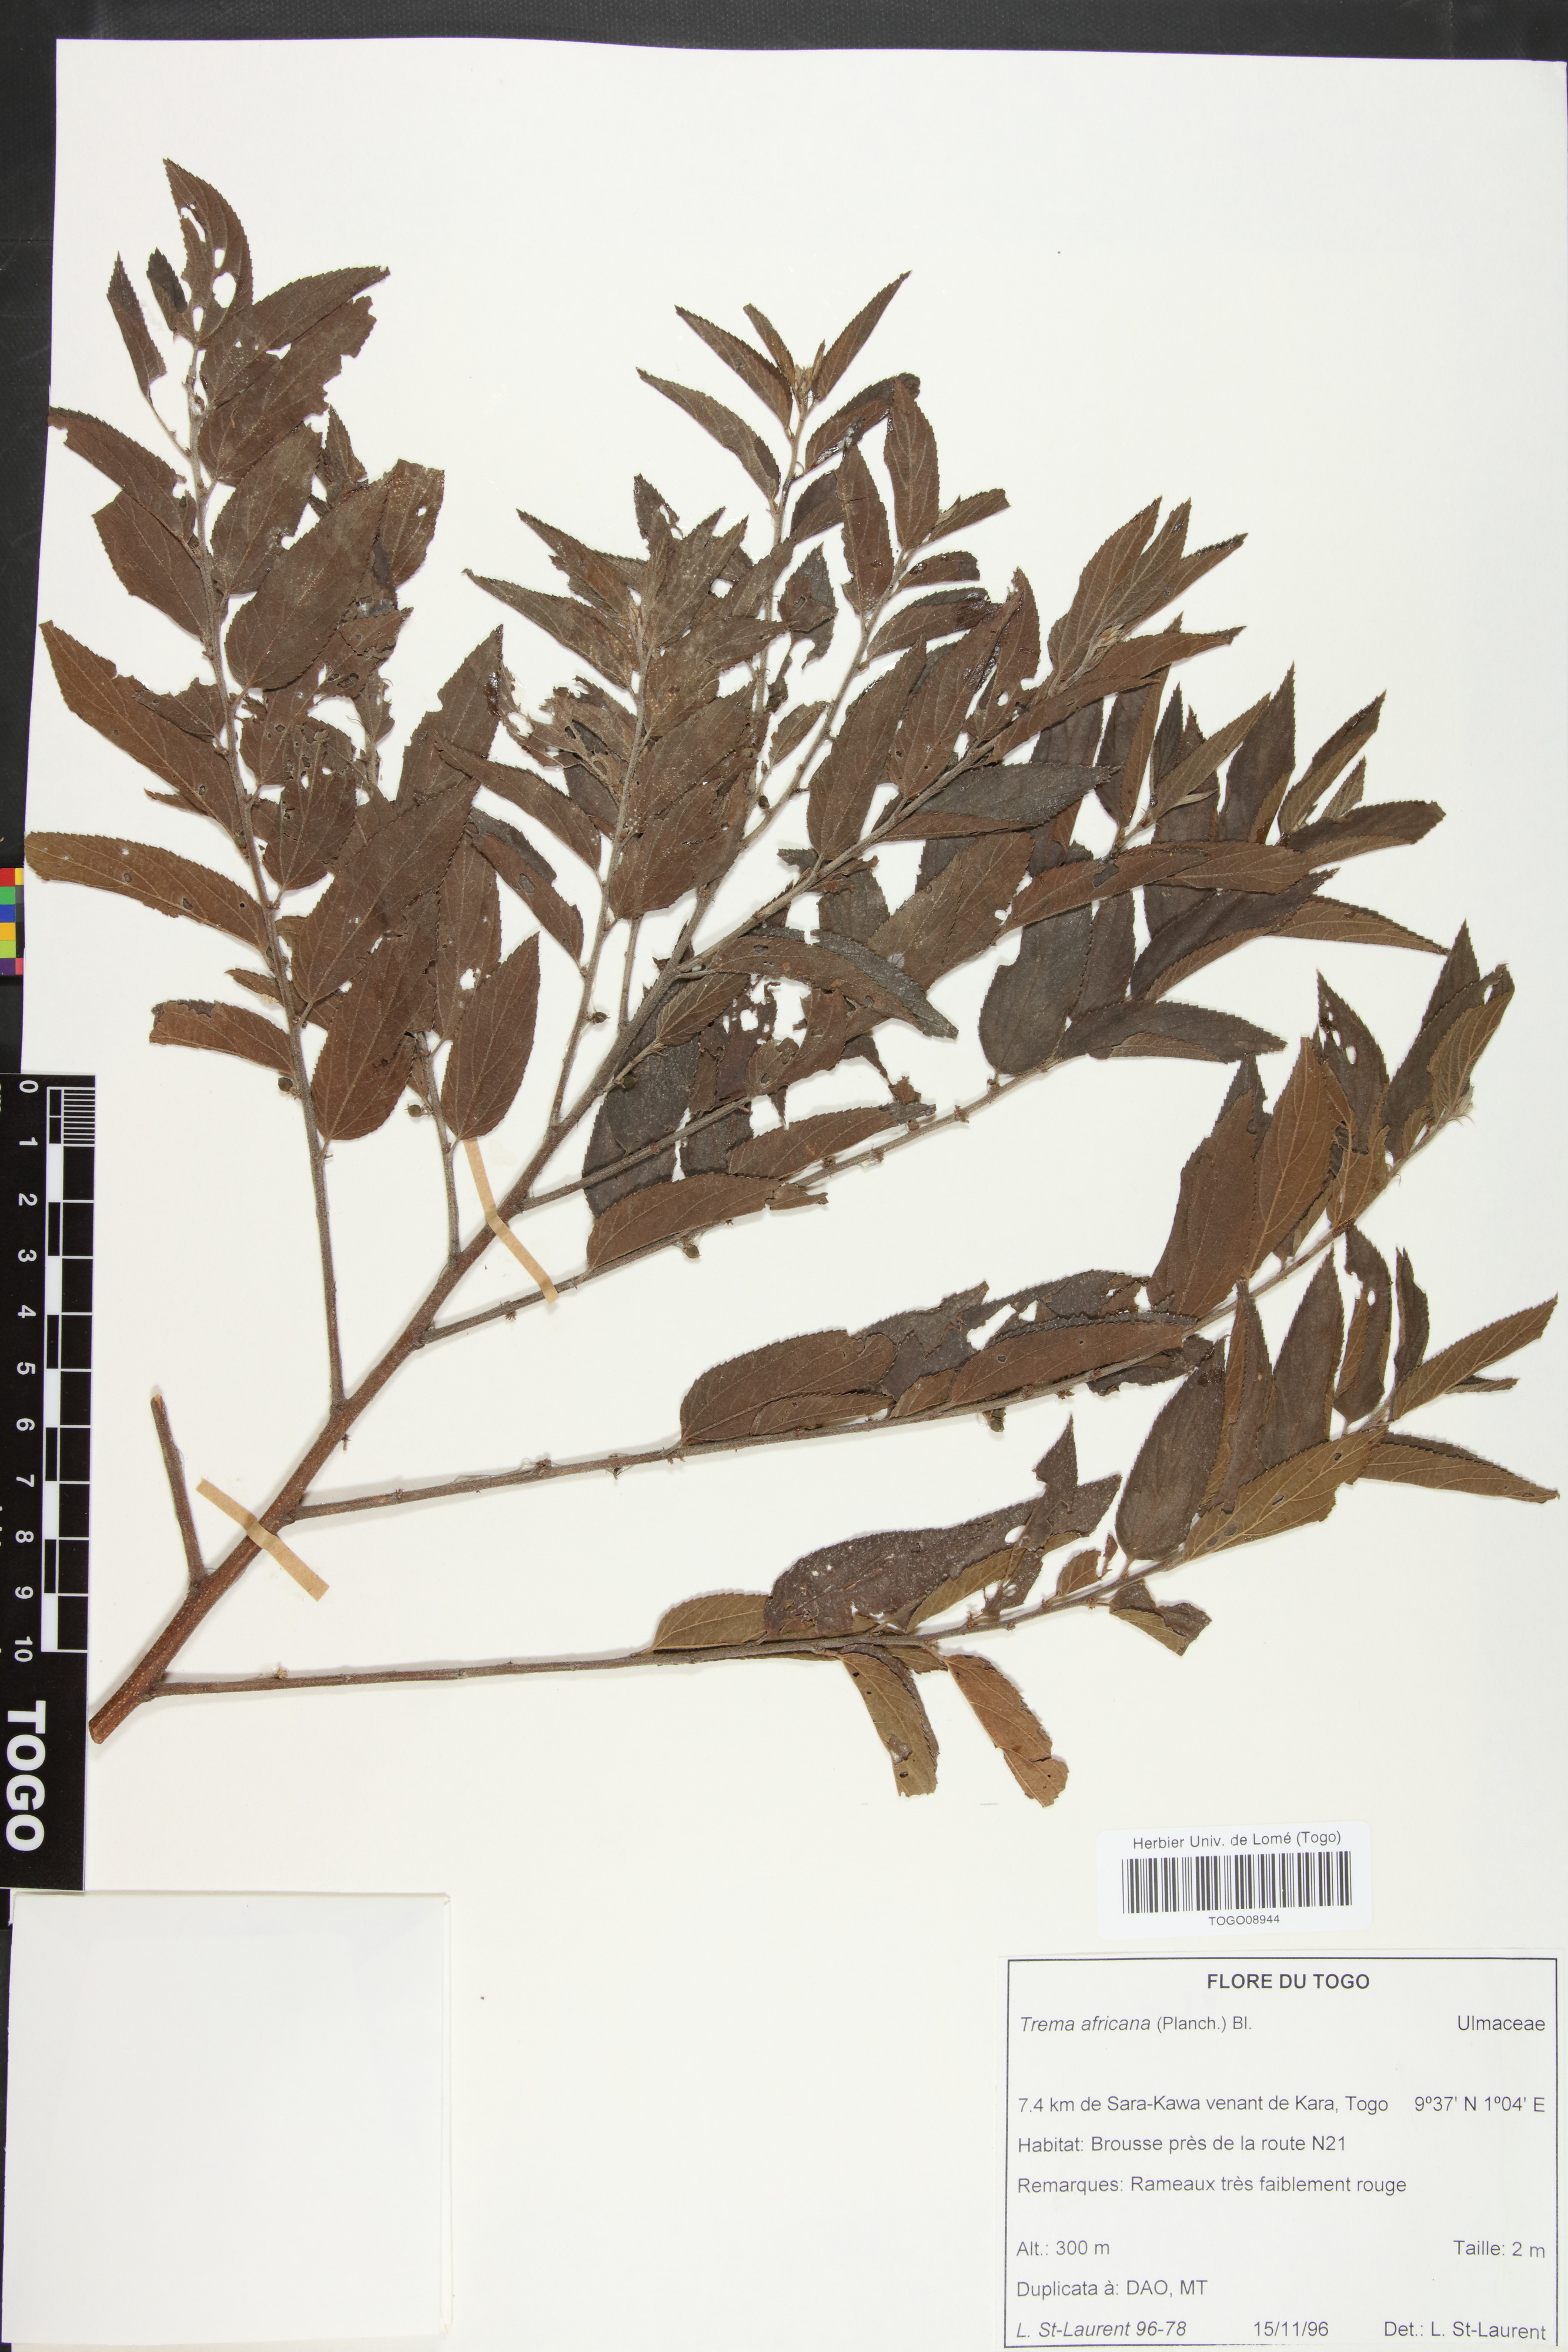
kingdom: Plantae
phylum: Tracheophyta
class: Magnoliopsida
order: Rosales
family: Cannabaceae
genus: Trema
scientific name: Trema orientale
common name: Indian charcoal tree
